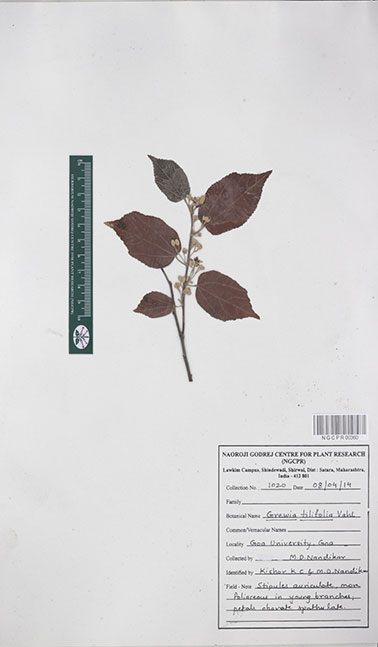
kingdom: Plantae
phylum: Tracheophyta
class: Magnoliopsida
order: Malvales
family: Malvaceae
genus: Grewia
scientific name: Grewia tiliifolia
